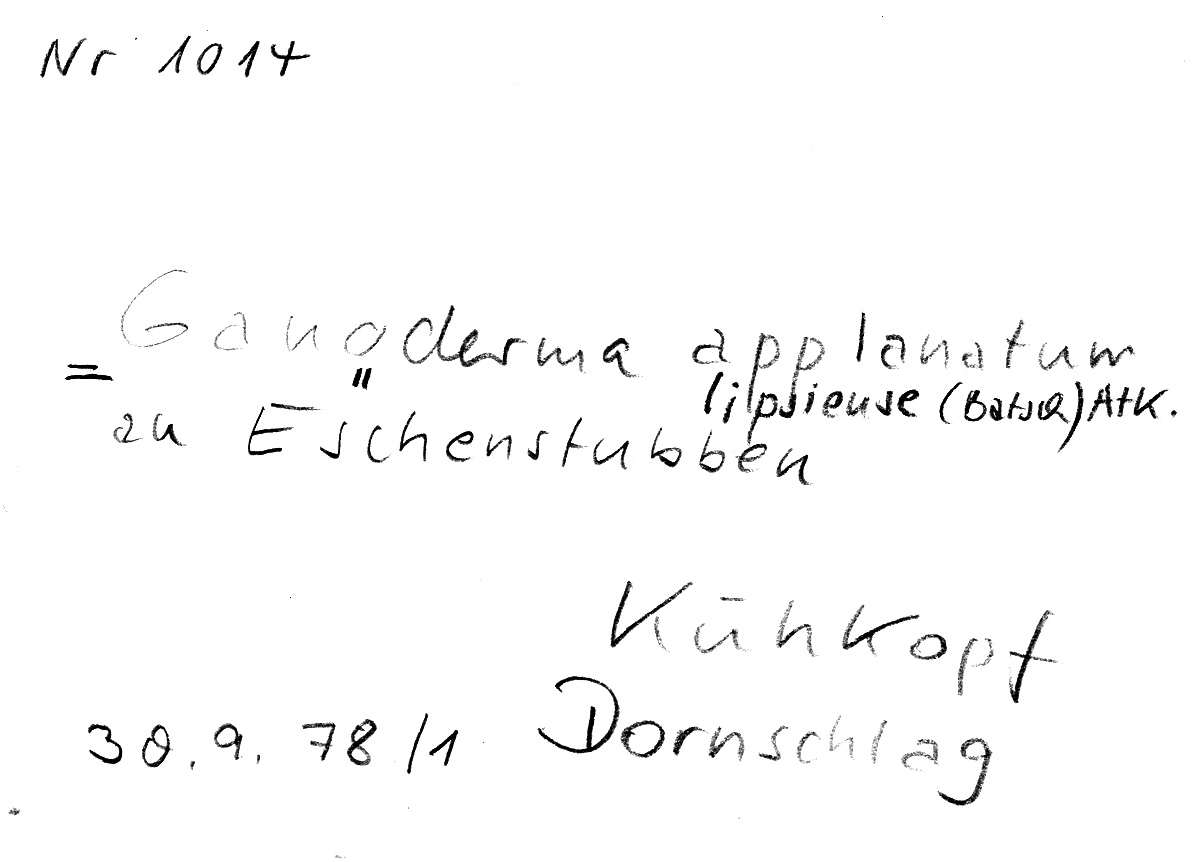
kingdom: Plantae
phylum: Tracheophyta
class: Magnoliopsida
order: Lamiales
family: Oleaceae
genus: Fraxinus
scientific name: Fraxinus
